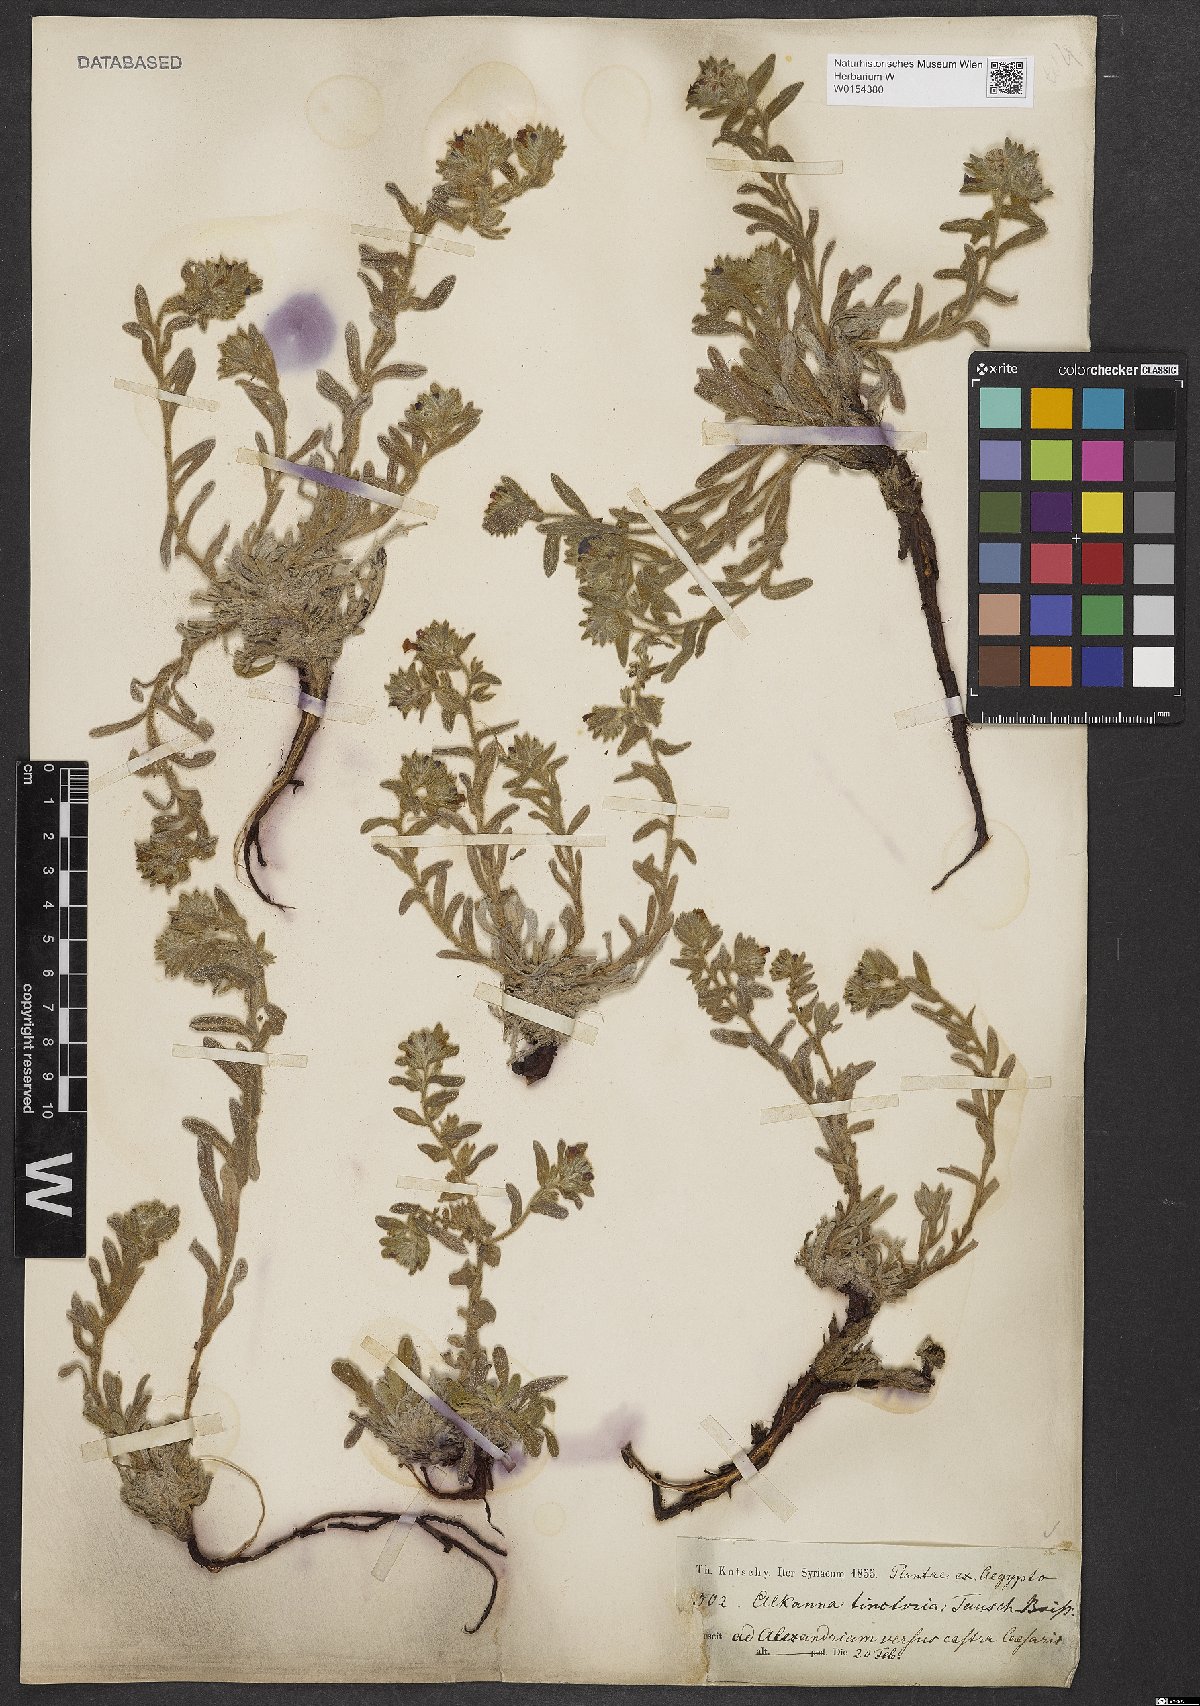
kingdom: Plantae
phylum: Tracheophyta
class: Magnoliopsida
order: Boraginales
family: Boraginaceae
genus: Alkanna
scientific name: Alkanna tinctoria
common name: Dyer's-alkanet
